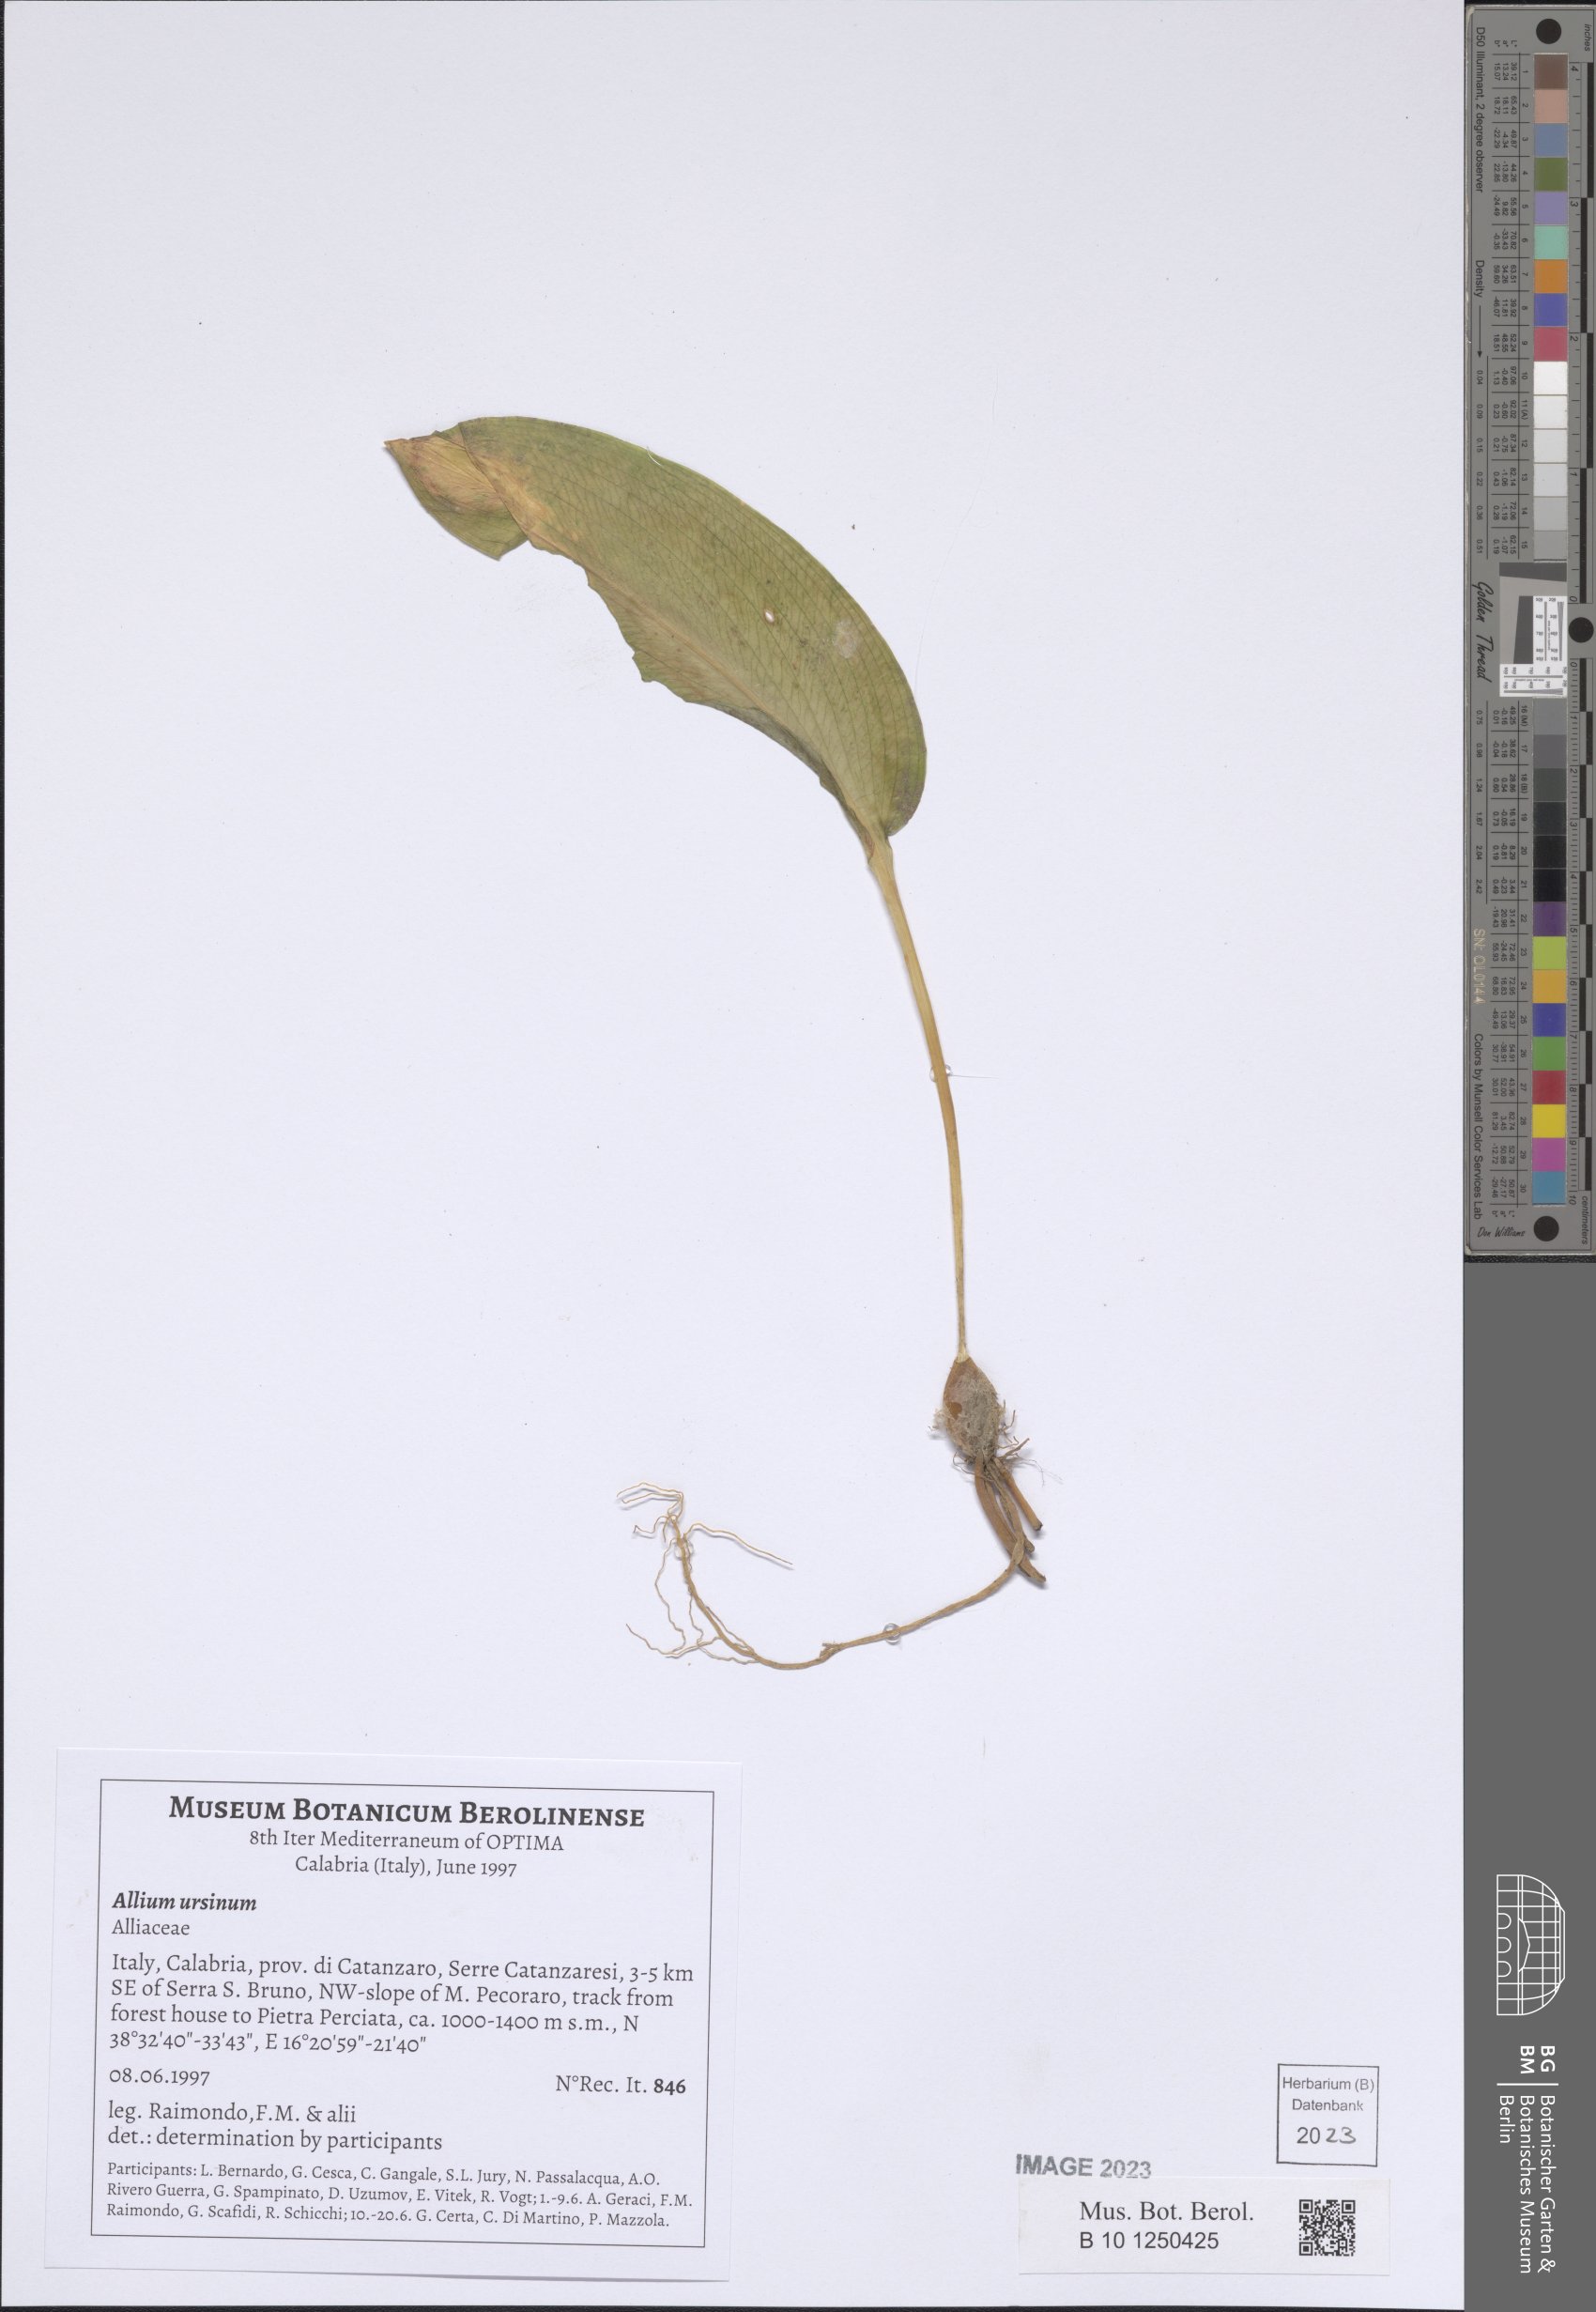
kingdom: Plantae
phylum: Tracheophyta
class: Liliopsida
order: Asparagales
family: Amaryllidaceae
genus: Allium
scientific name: Allium ursinum
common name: Ramsons
